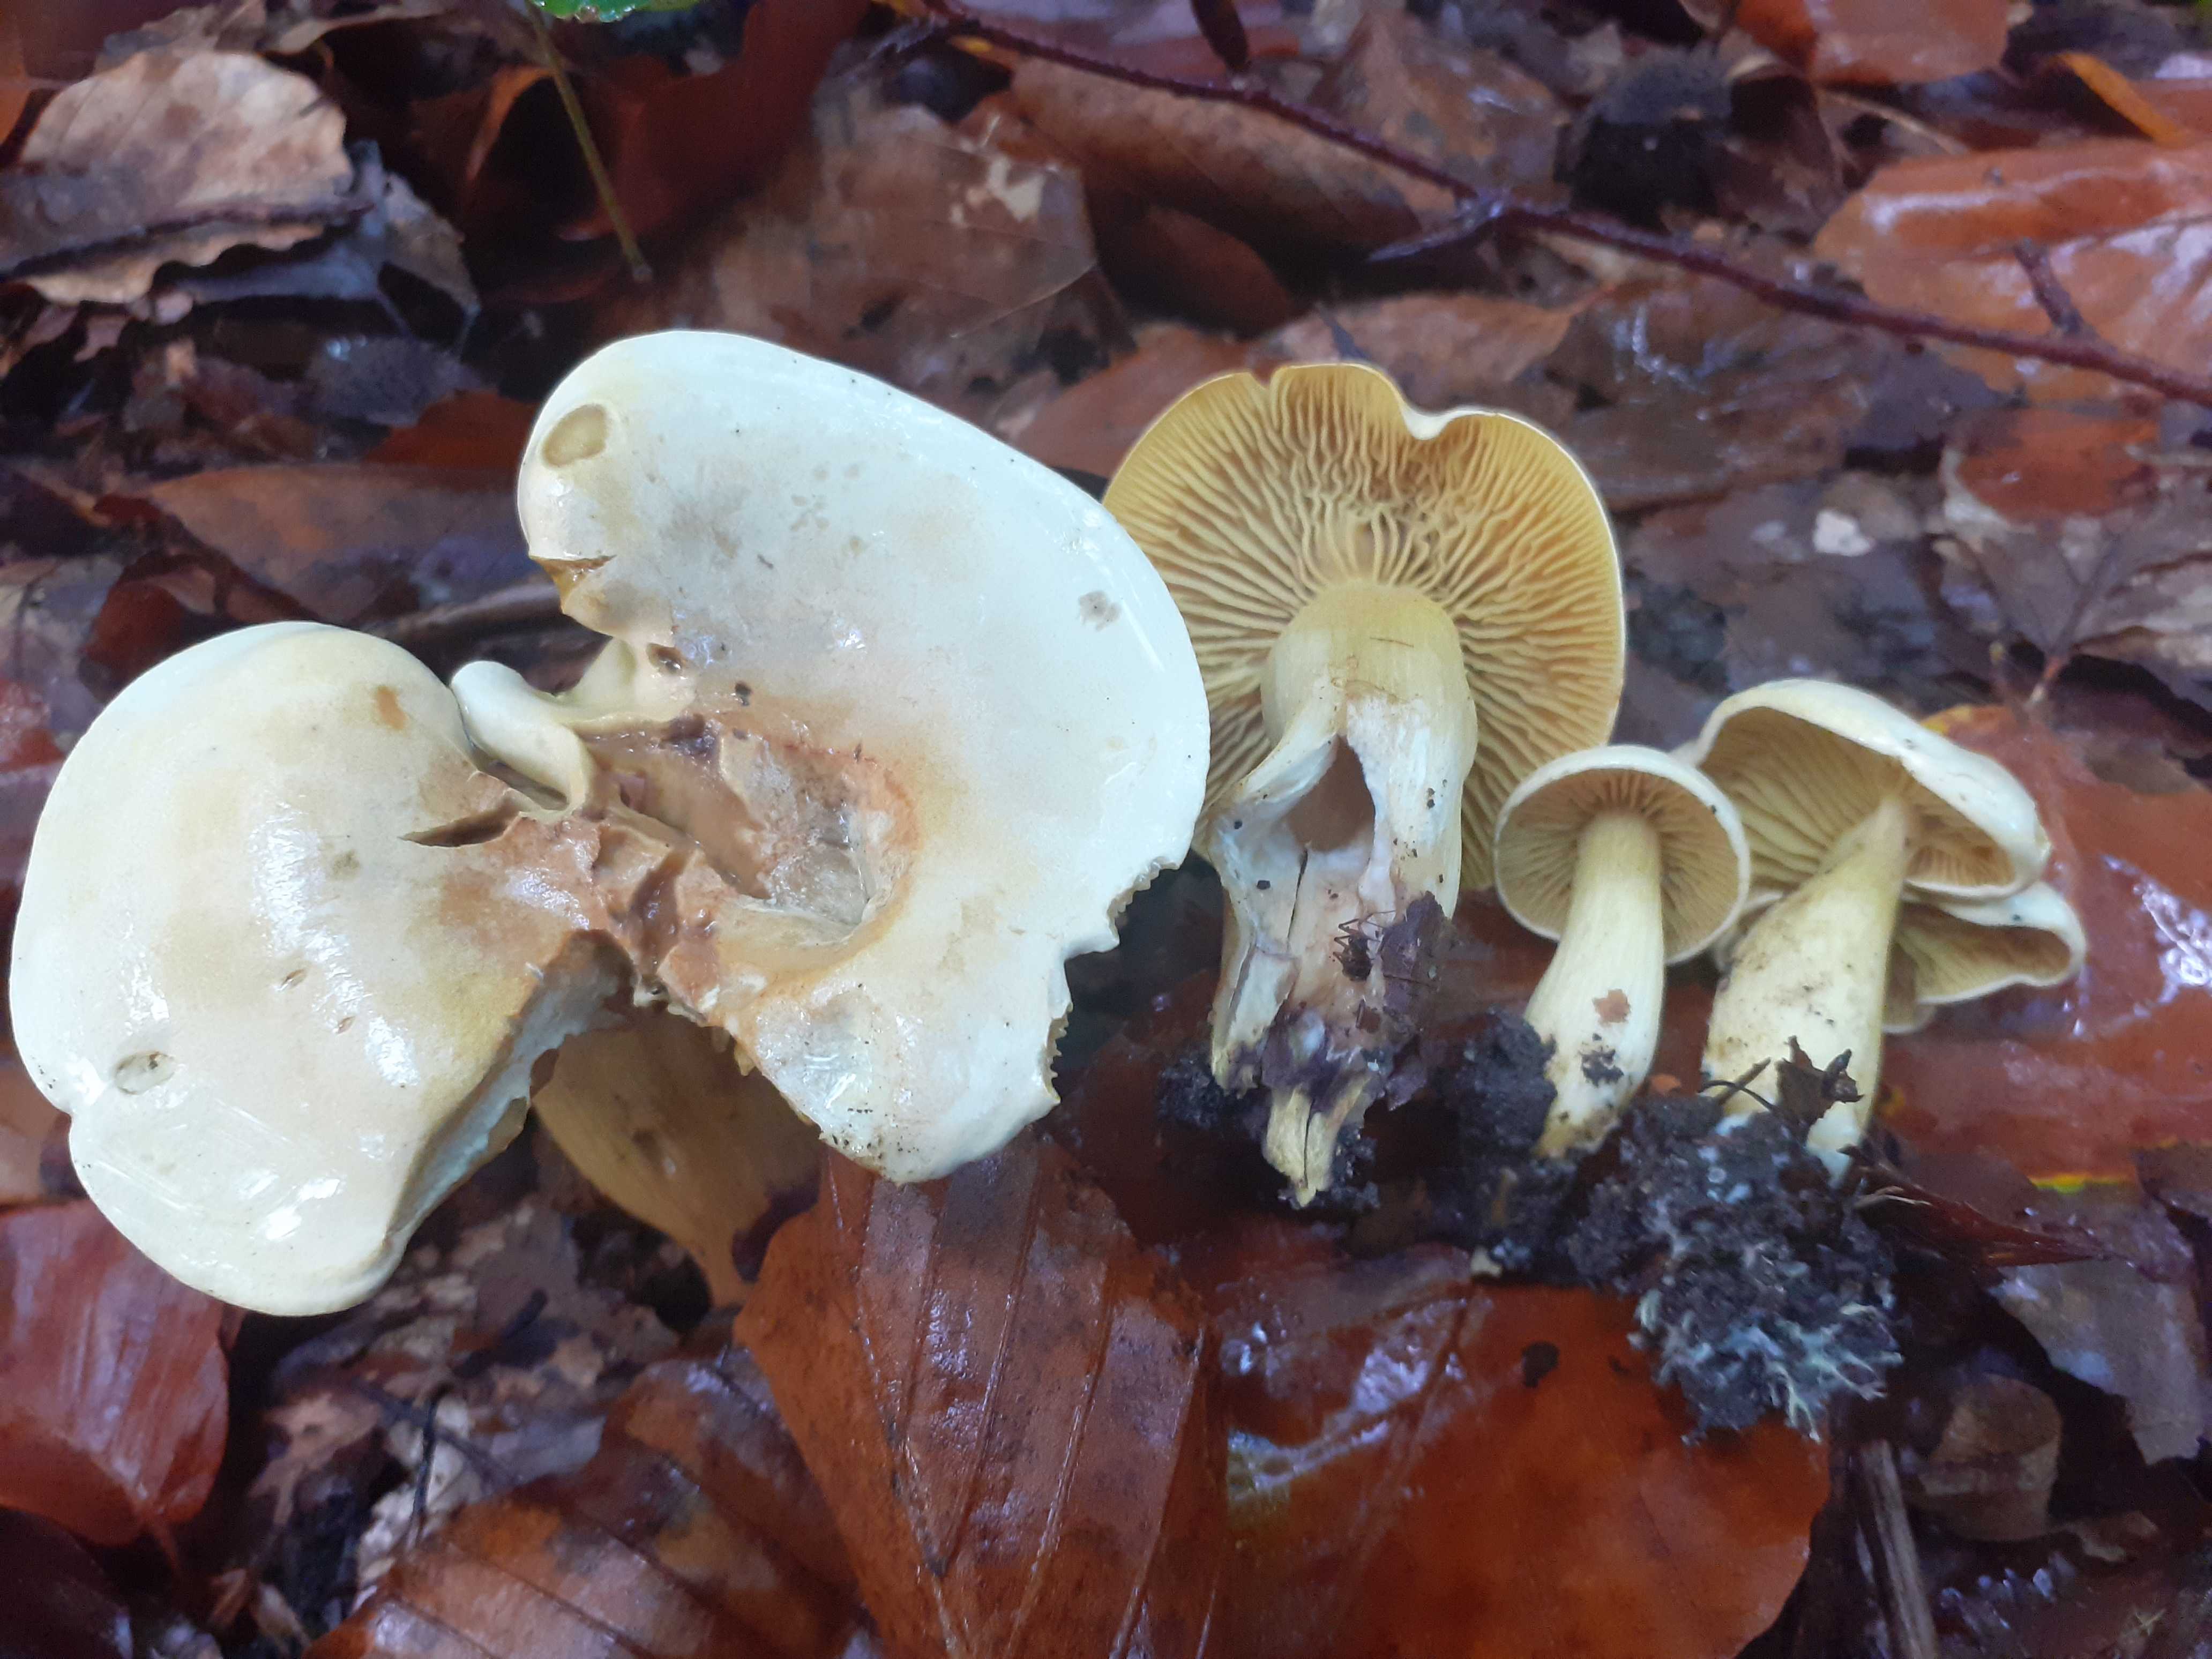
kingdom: Fungi
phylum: Basidiomycota
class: Agaricomycetes
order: Agaricales
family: Tricholomataceae
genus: Tricholoma
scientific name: Tricholoma sulphureum
